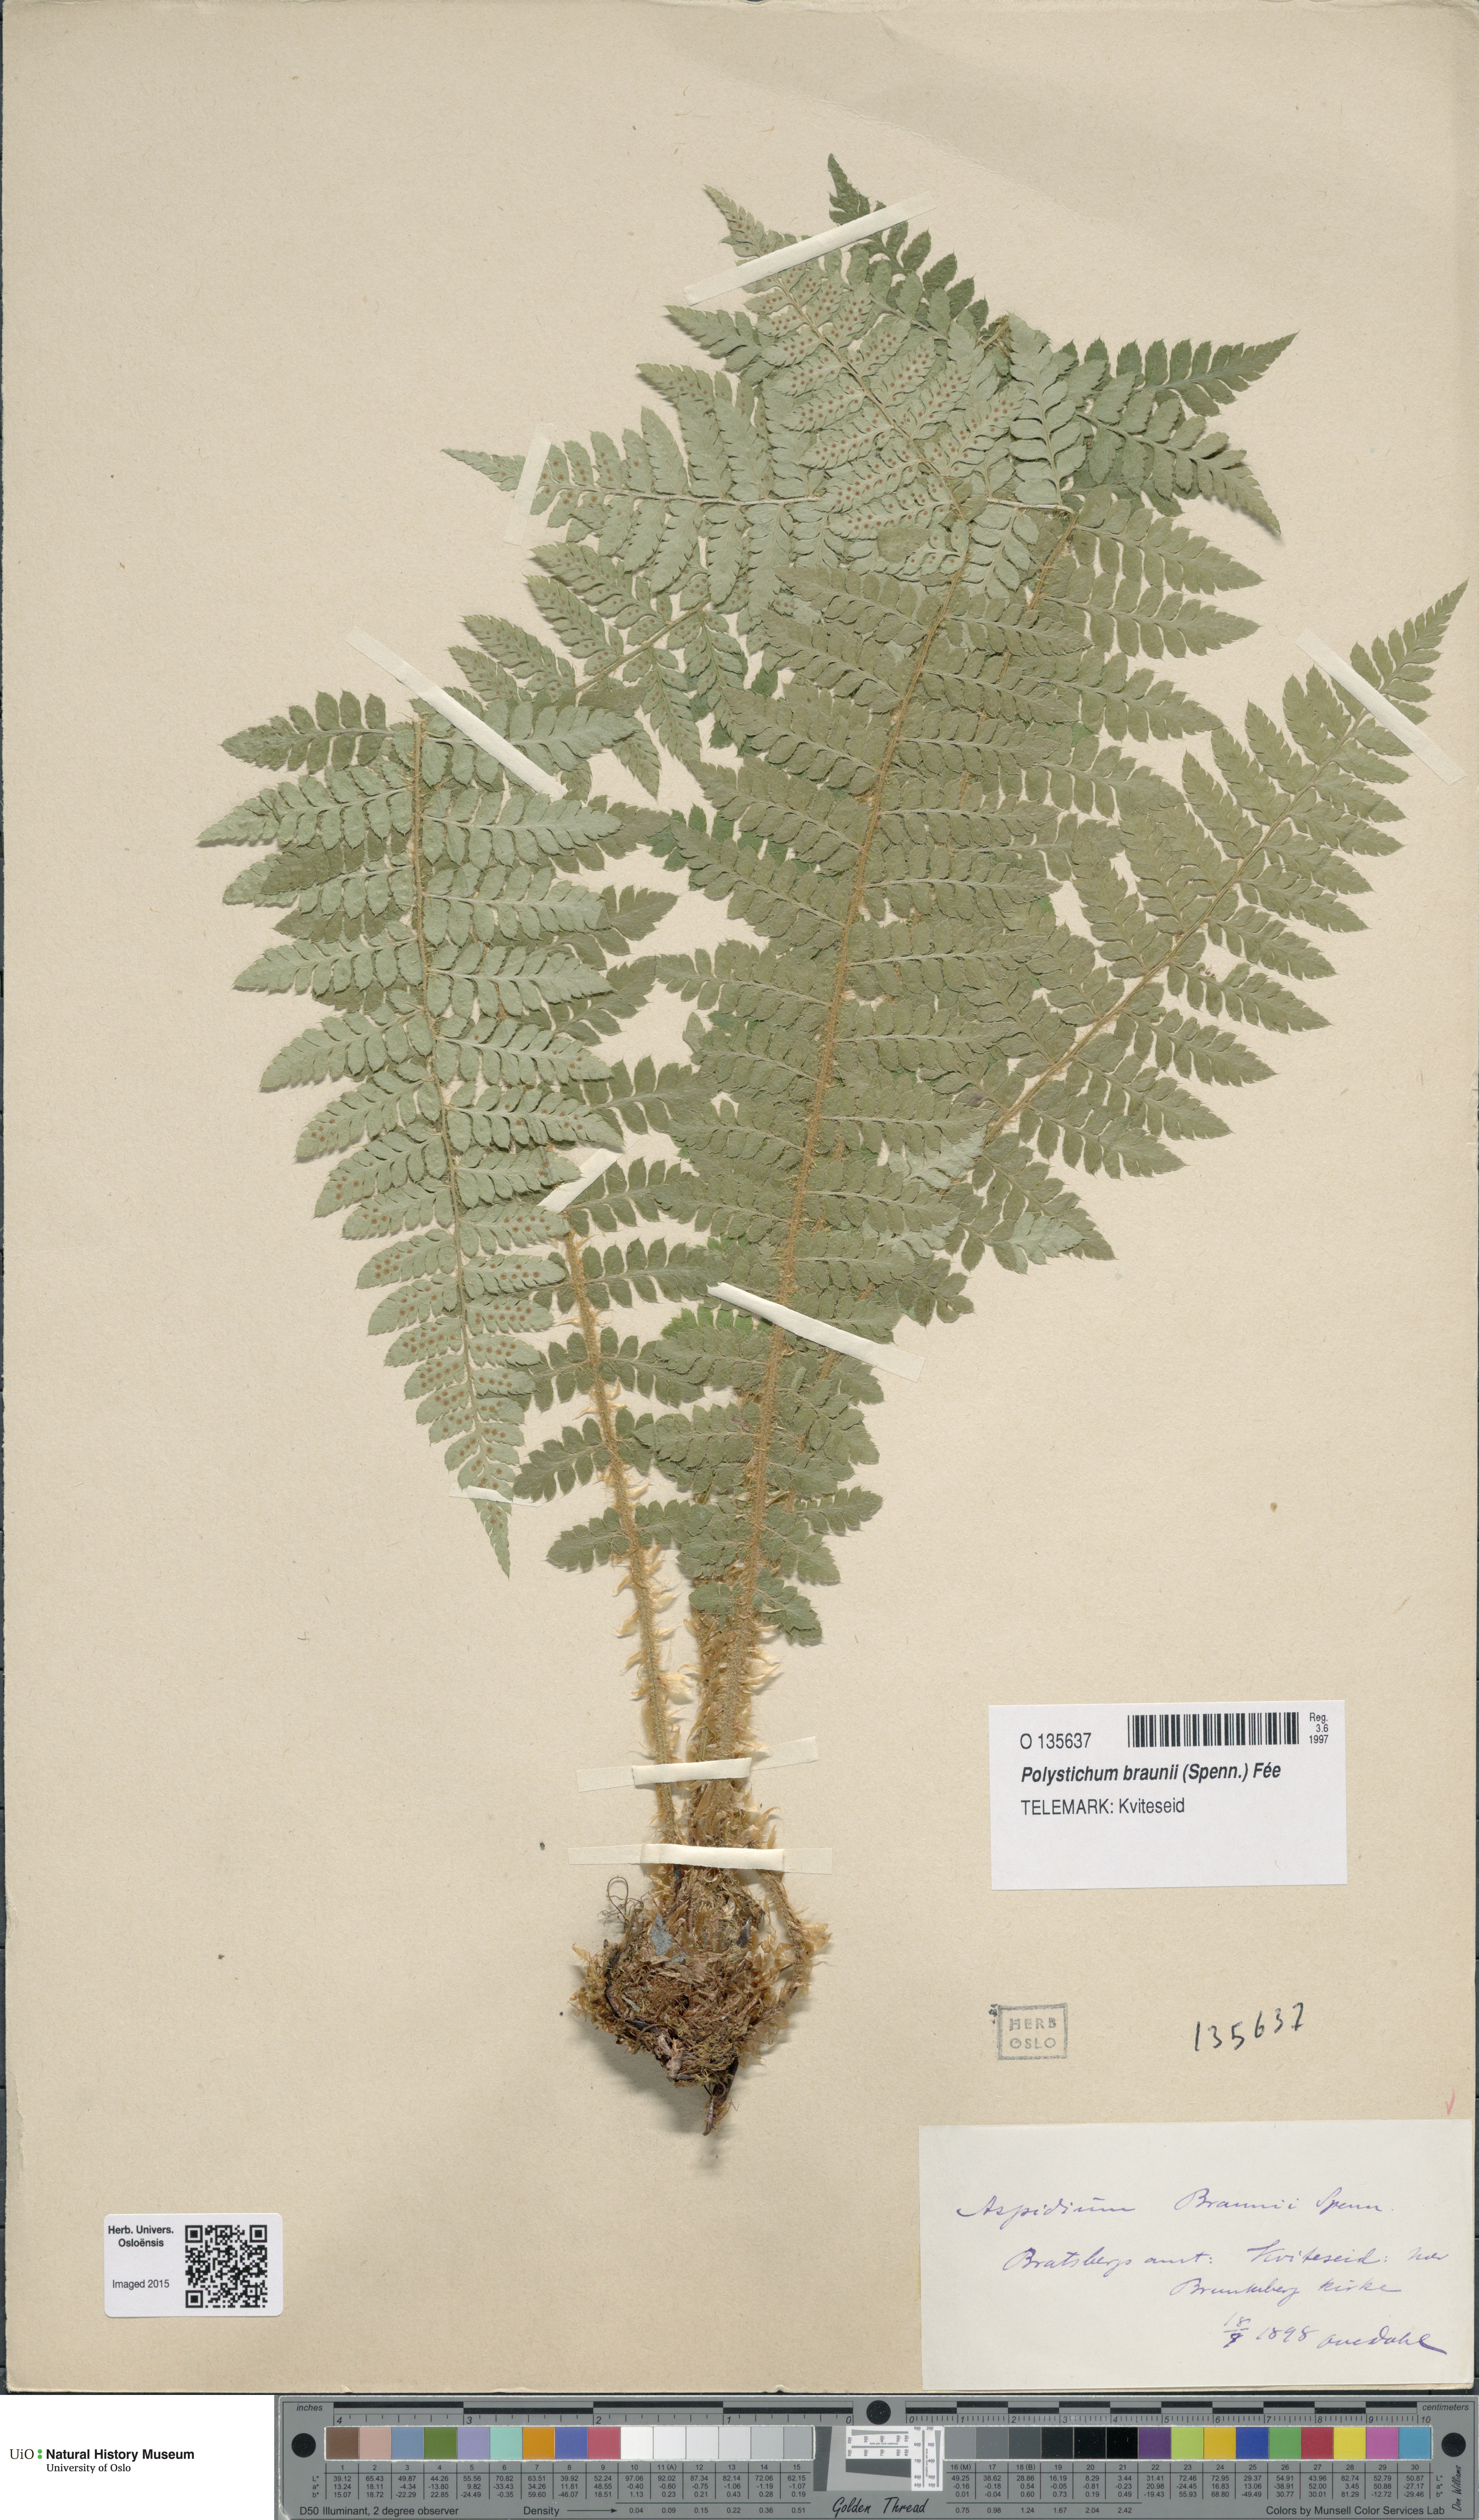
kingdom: Plantae
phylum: Tracheophyta
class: Polypodiopsida
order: Polypodiales
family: Dryopteridaceae
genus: Polystichum
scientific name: Polystichum braunii
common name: Braun's holly fern
